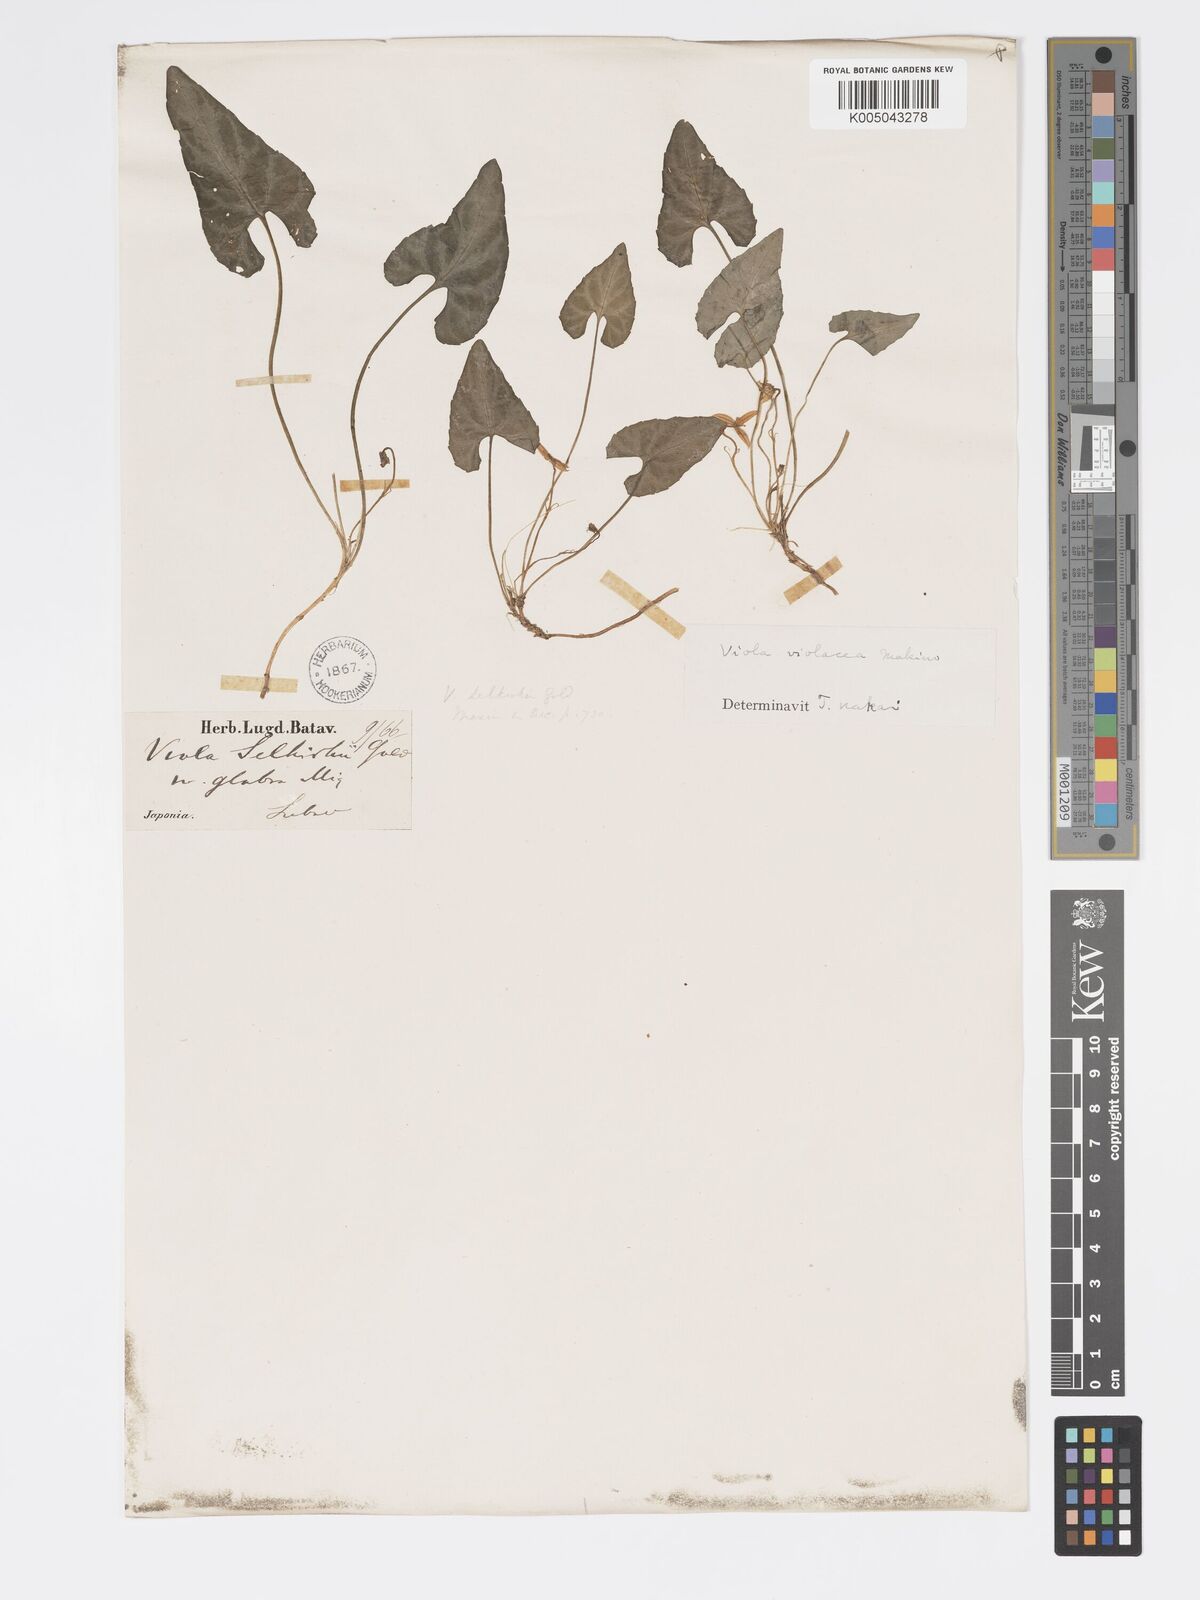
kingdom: Plantae
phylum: Tracheophyta
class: Magnoliopsida
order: Malpighiales
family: Violaceae
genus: Viola
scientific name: Viola violacea
